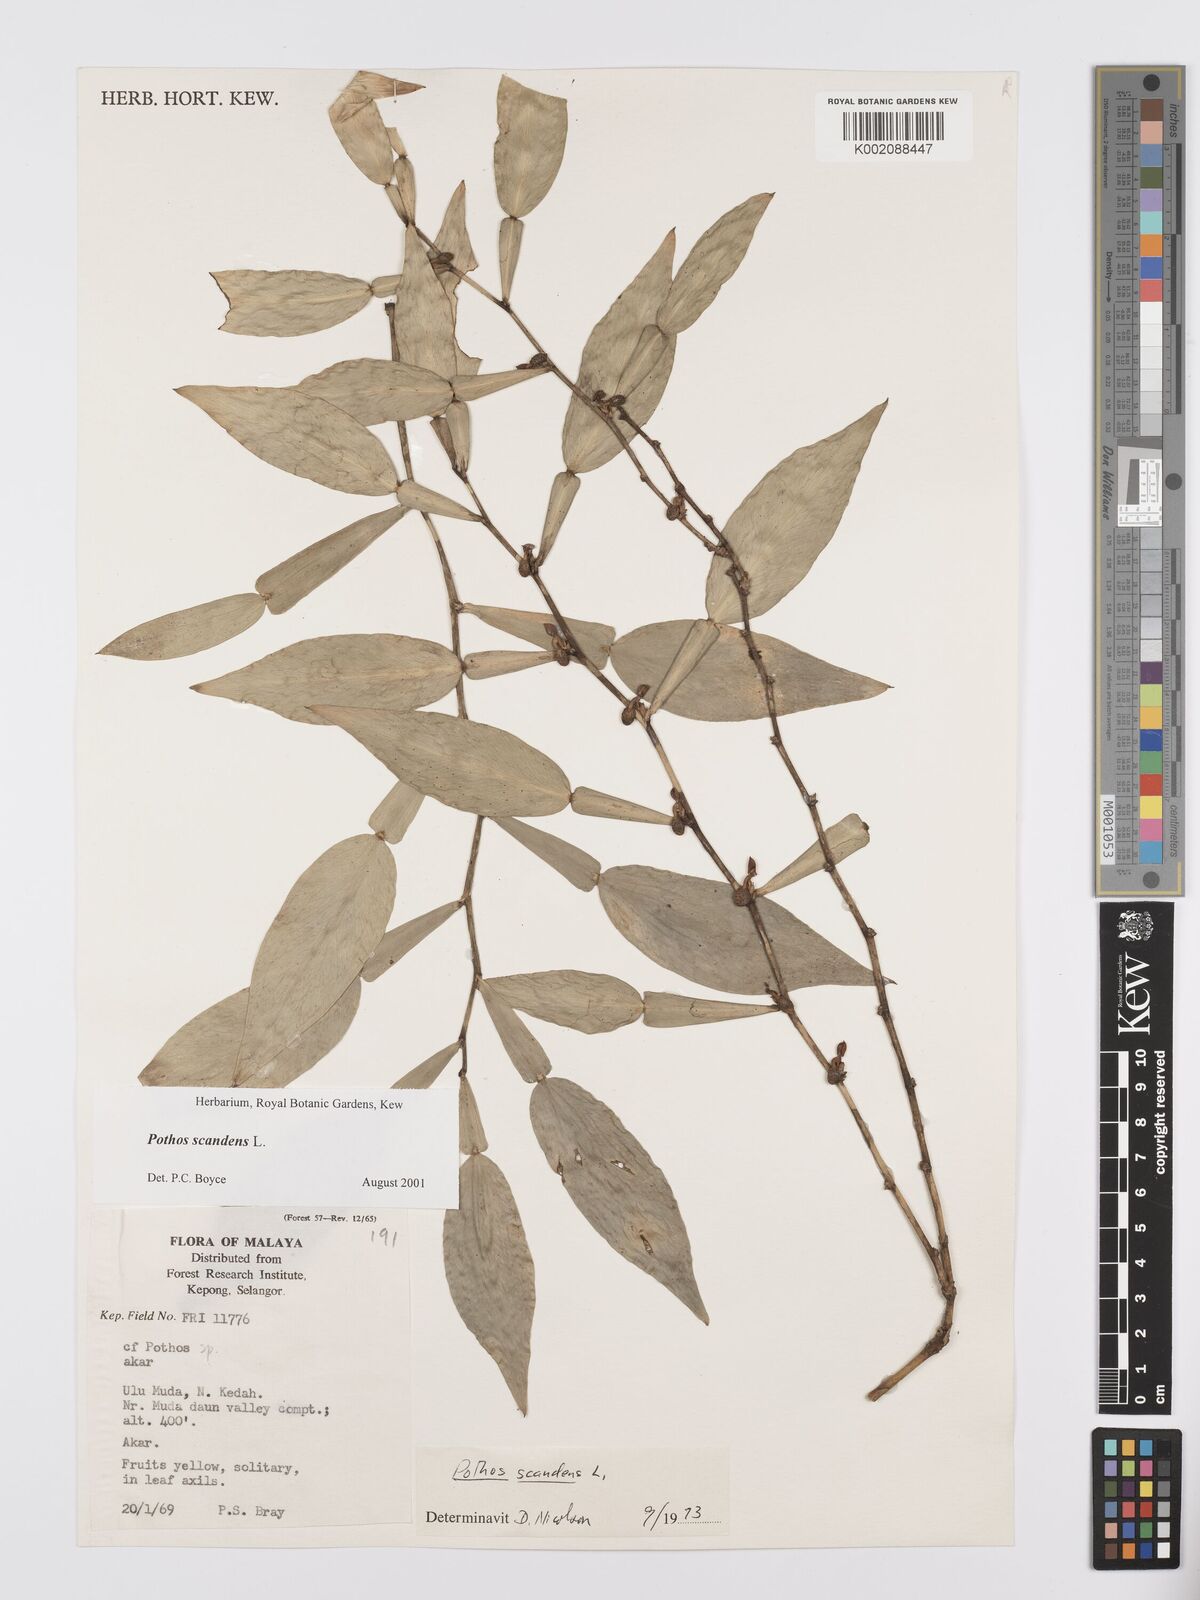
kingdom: Plantae
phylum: Tracheophyta
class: Liliopsida
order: Alismatales
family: Araceae
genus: Pothos
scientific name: Pothos scandens
